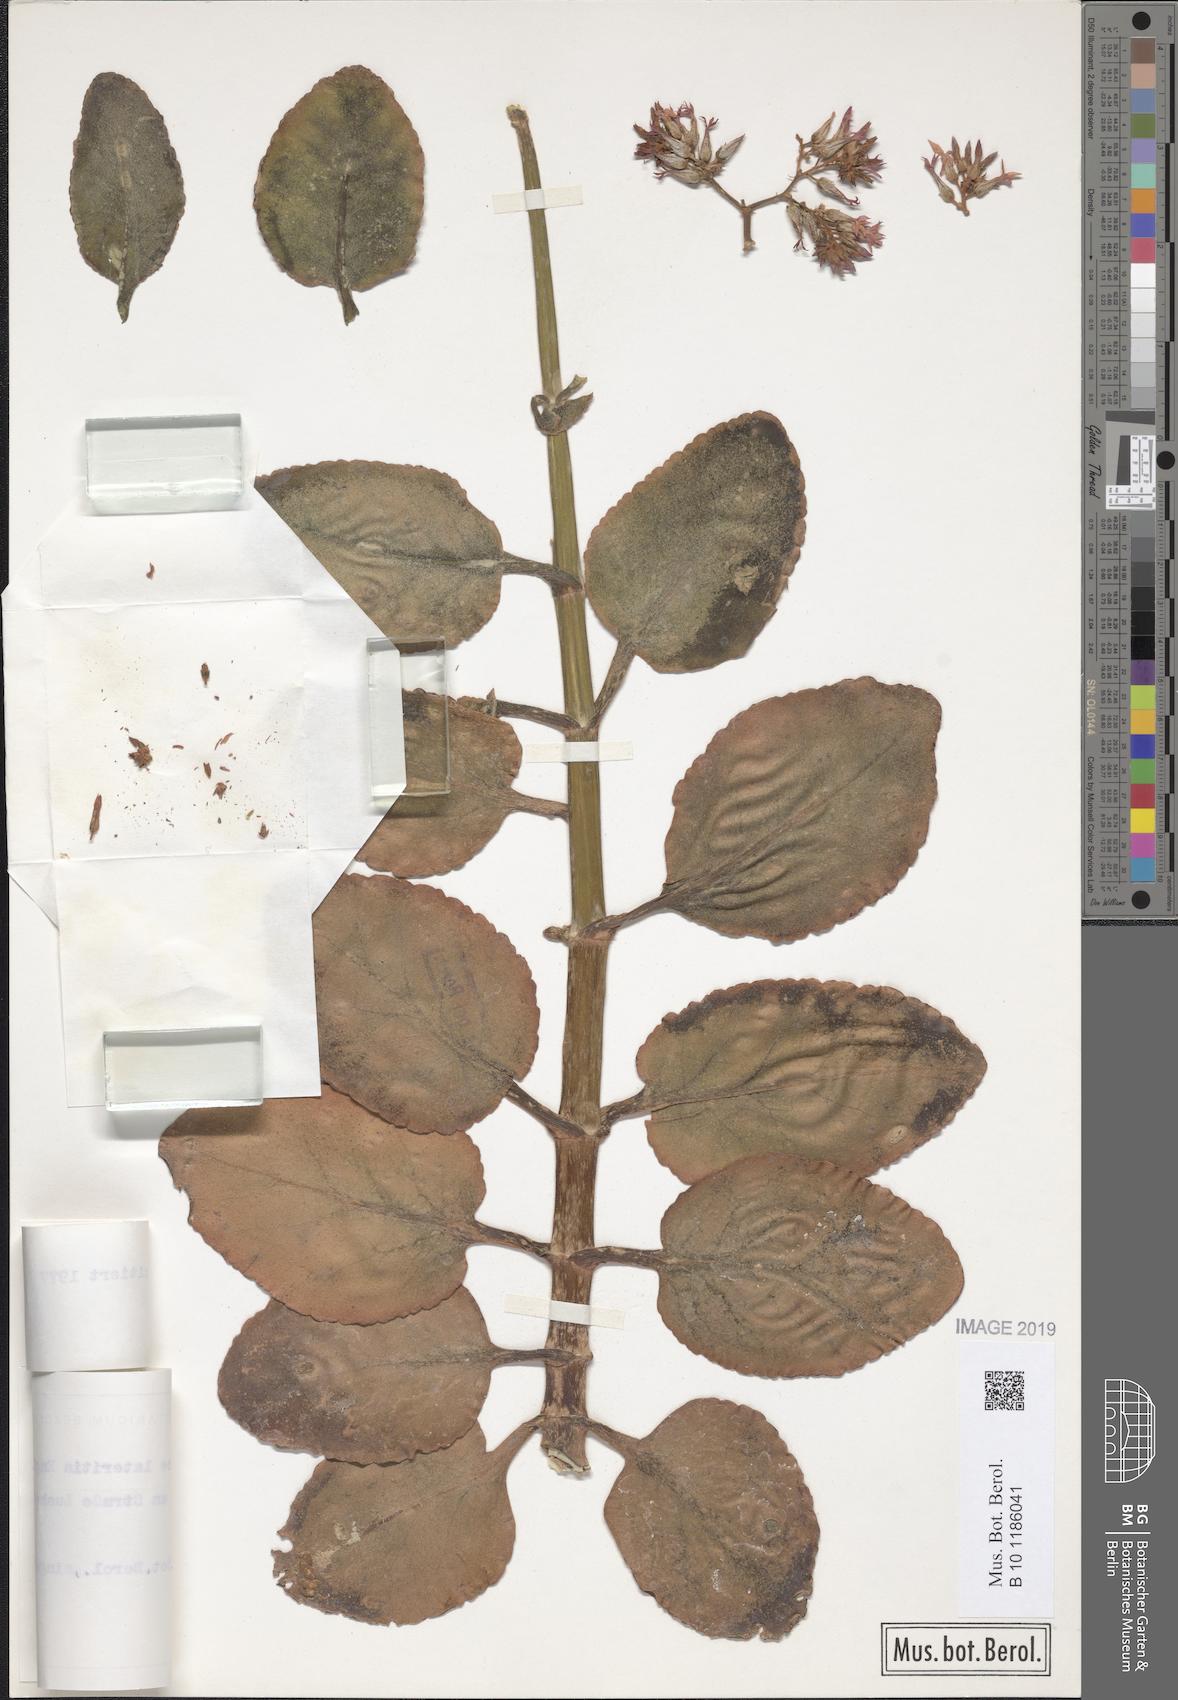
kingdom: Plantae
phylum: Tracheophyta
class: Magnoliopsida
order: Saxifragales
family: Crassulaceae
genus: Kalanchoe
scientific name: Kalanchoe lateritia
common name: Kalanchoe
